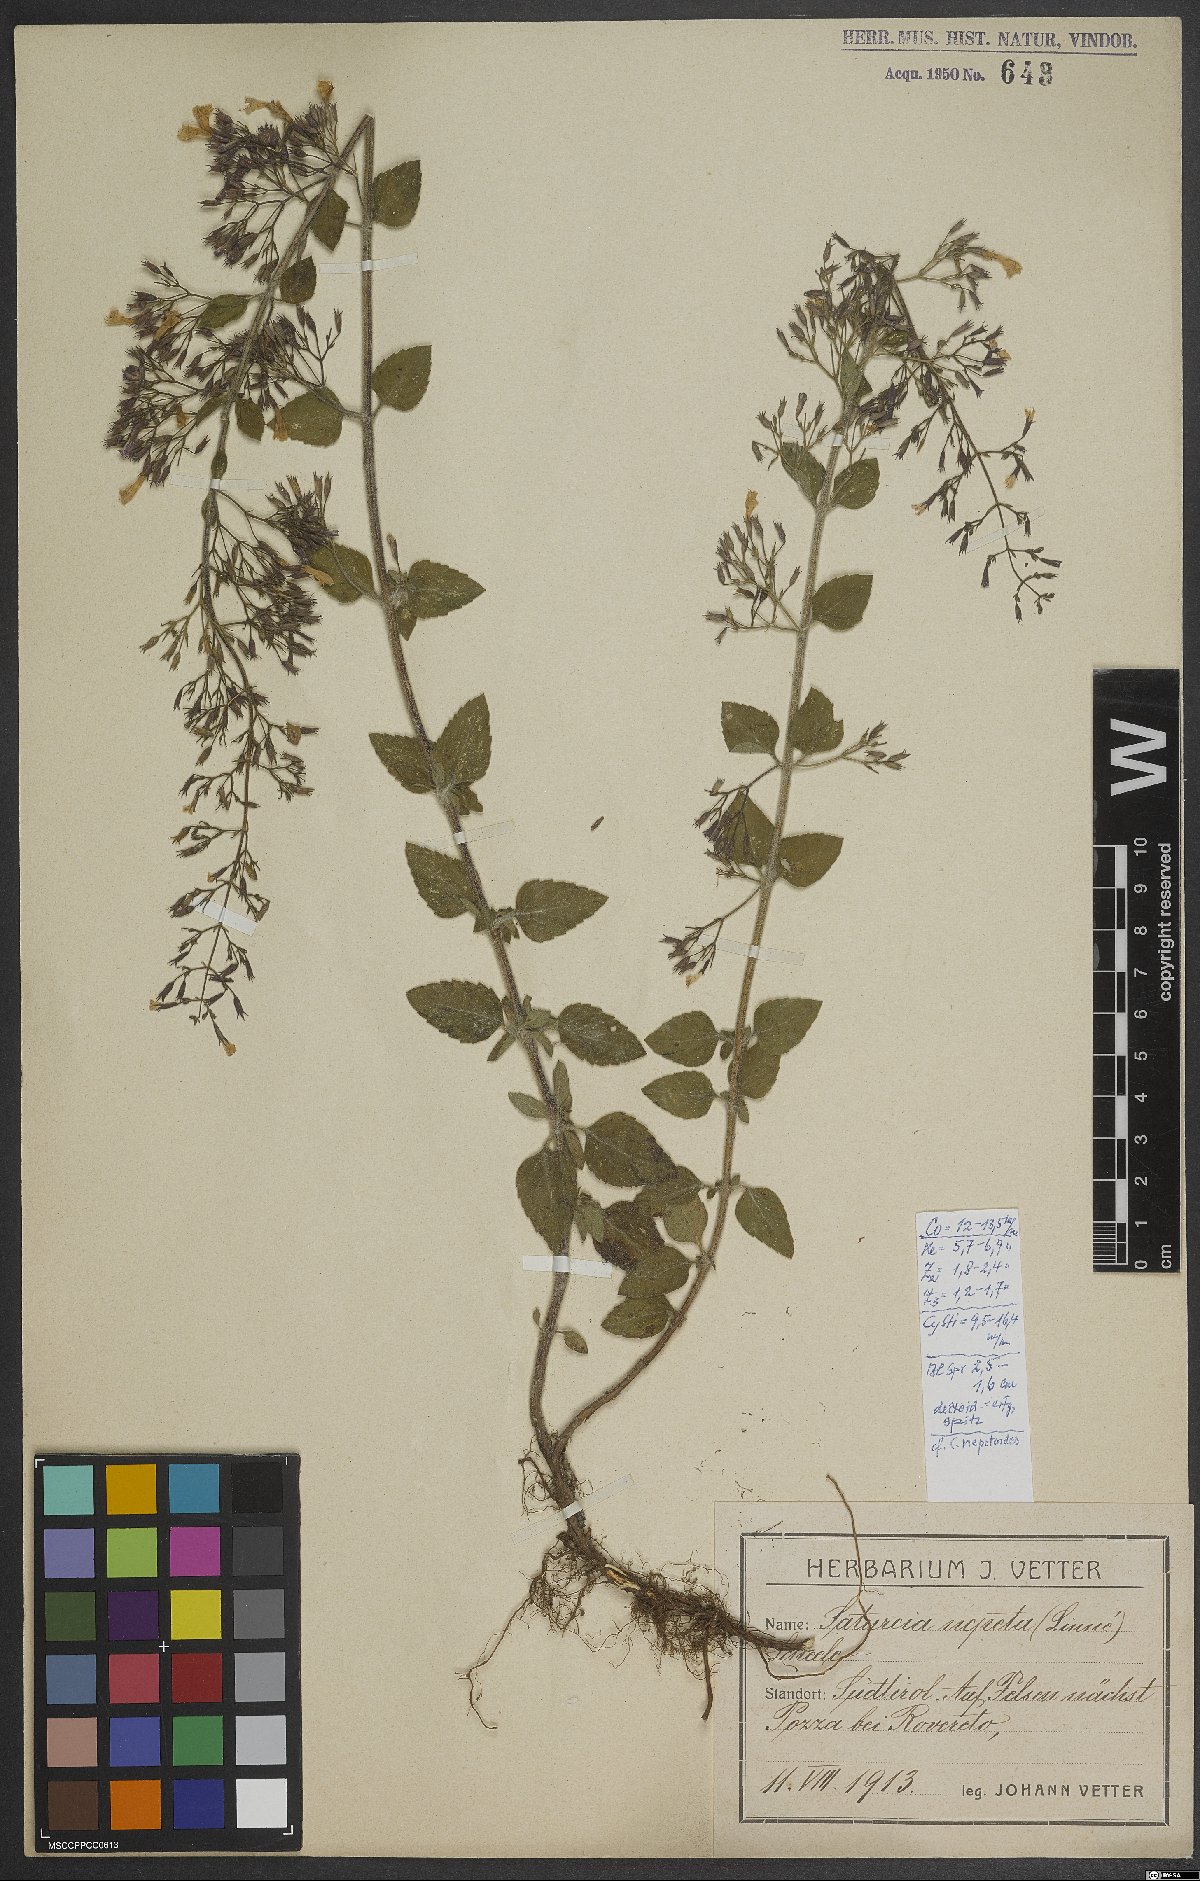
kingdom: Plantae
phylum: Tracheophyta
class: Magnoliopsida
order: Lamiales
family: Lamiaceae
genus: Clinopodium
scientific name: Clinopodium nepeta
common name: Lesser calamint
